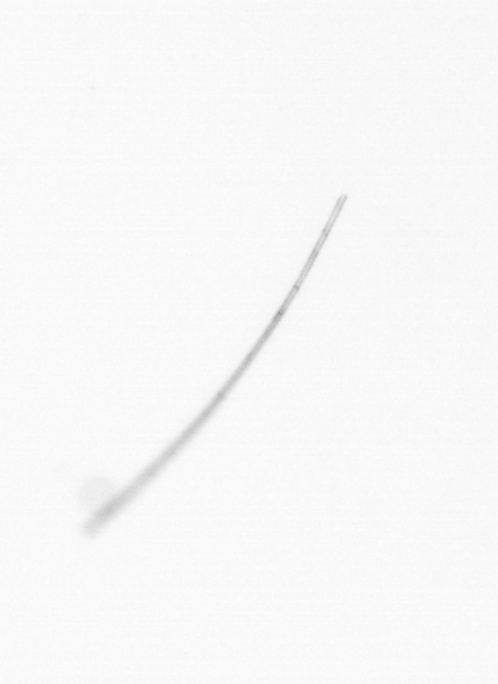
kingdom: Chromista
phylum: Ochrophyta
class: Bacillariophyceae
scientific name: Bacillariophyceae
